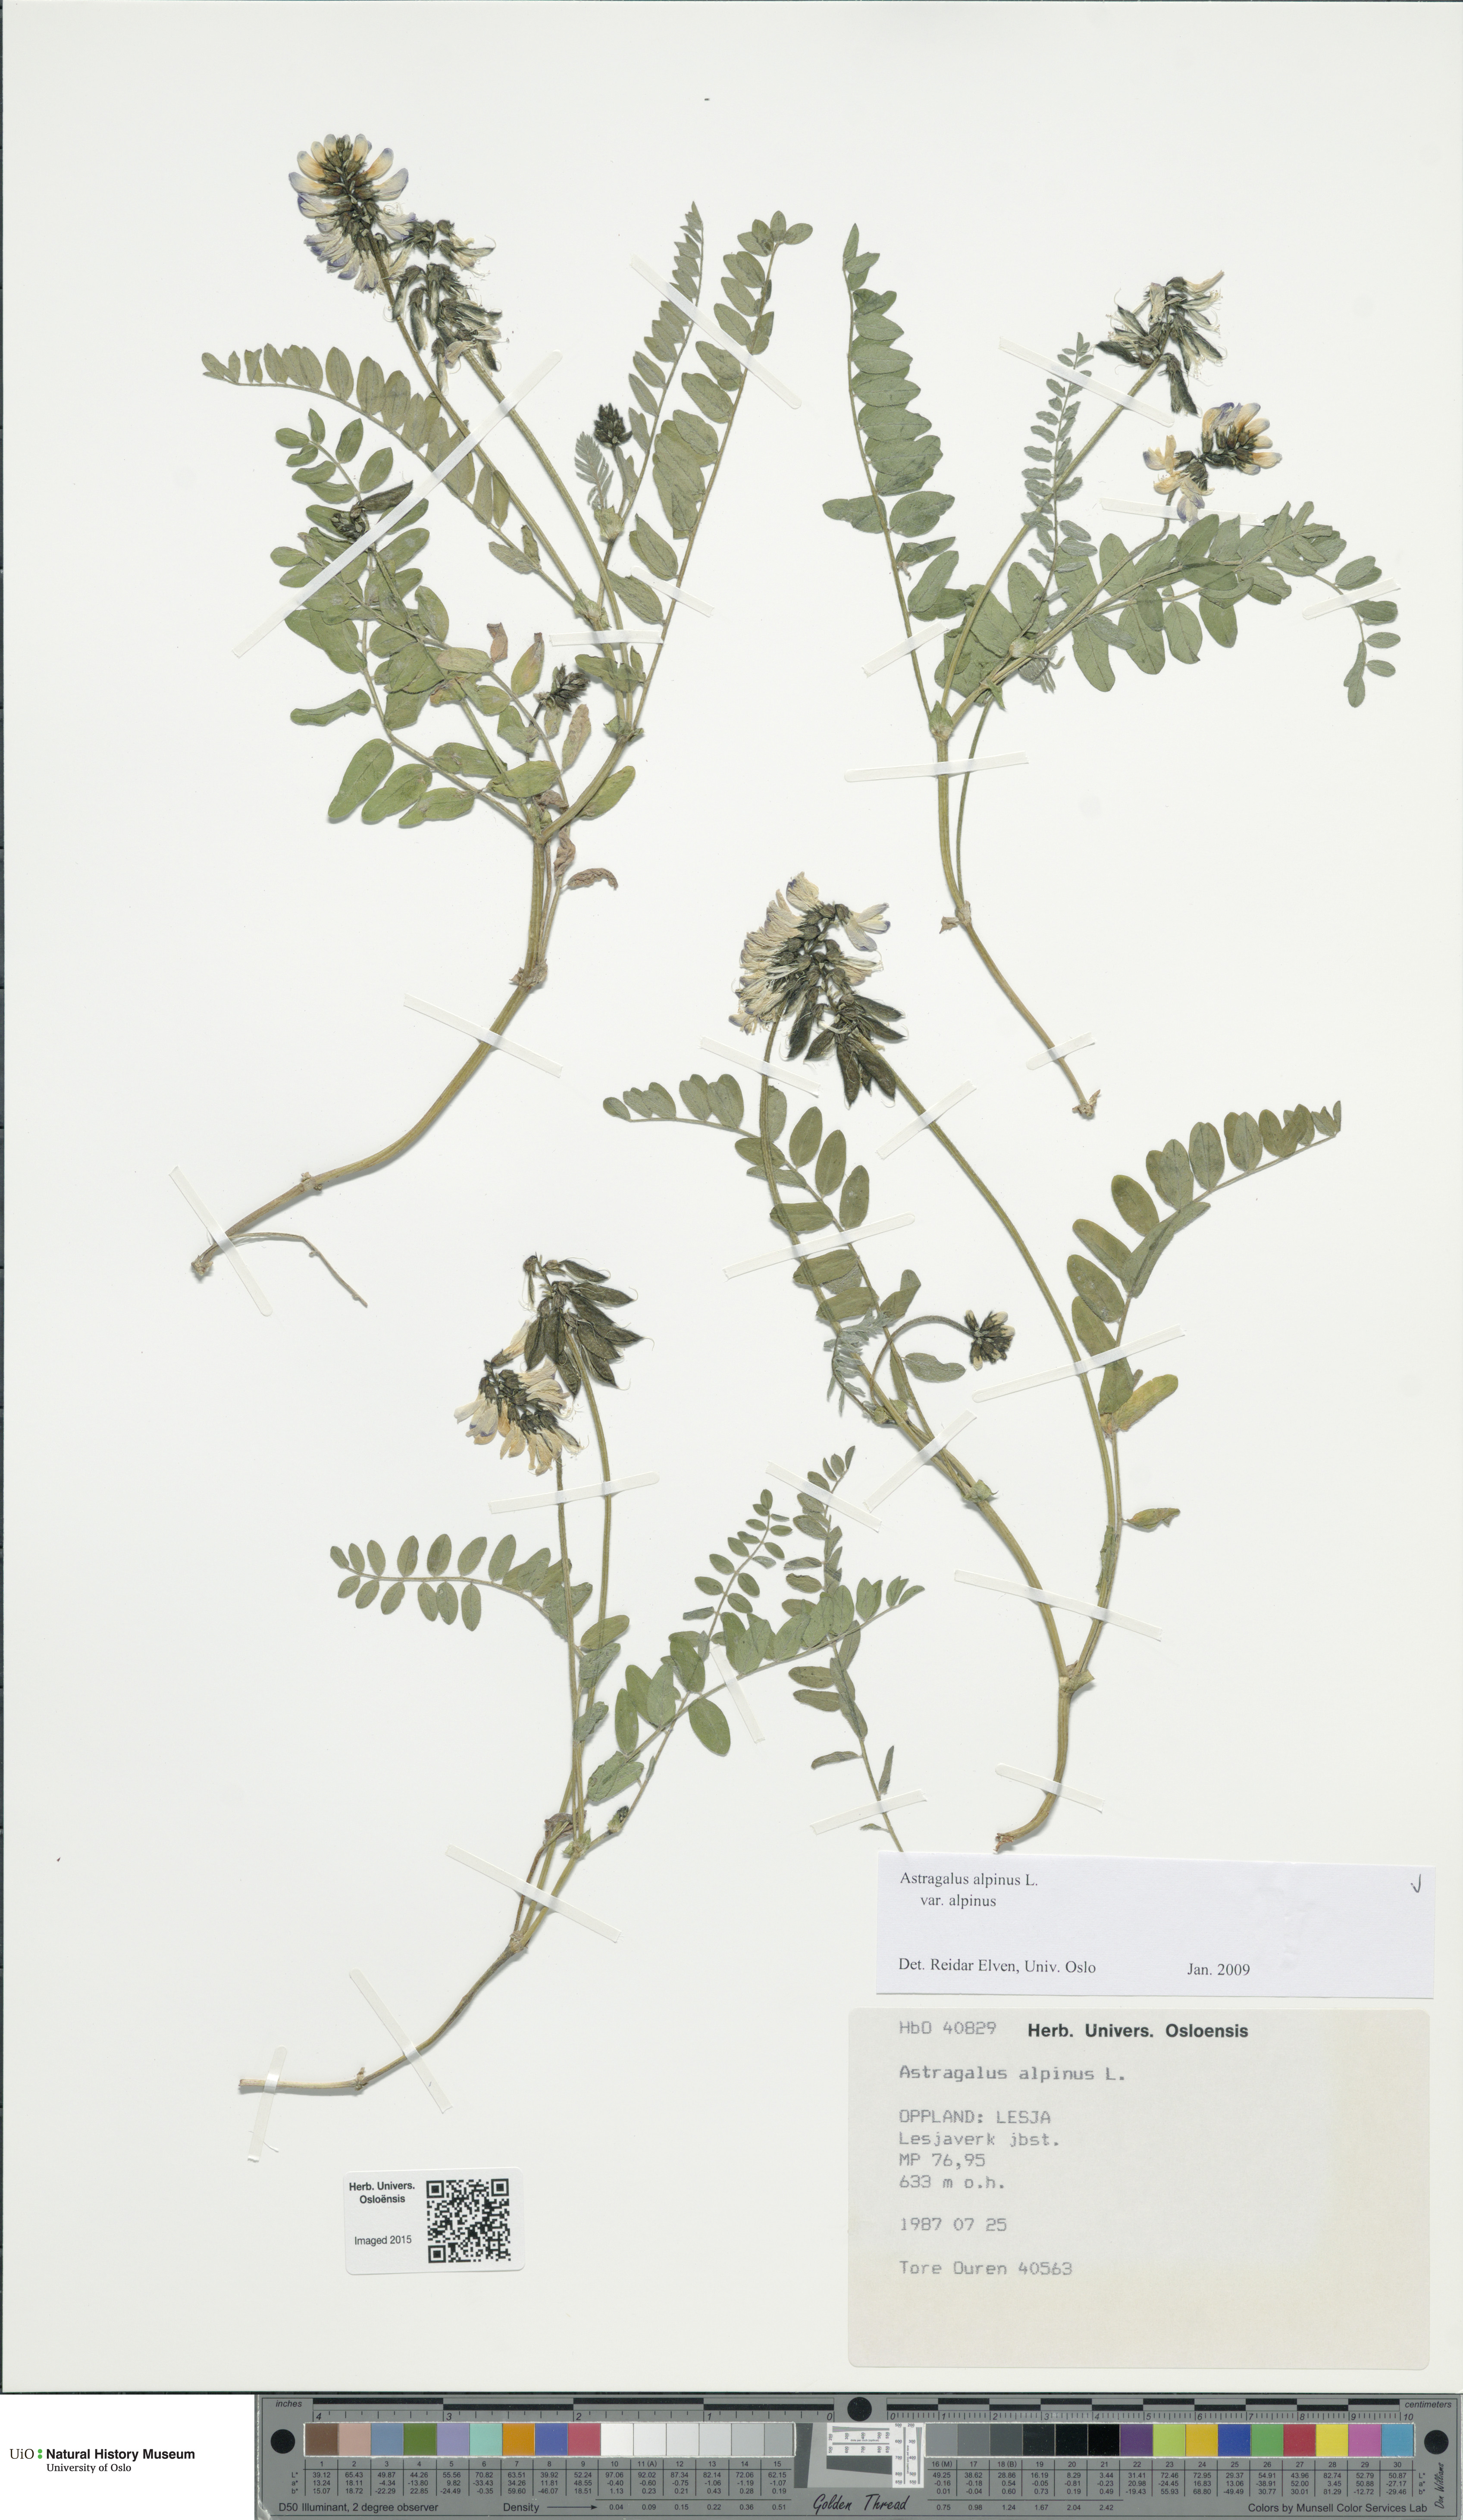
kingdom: Plantae
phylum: Tracheophyta
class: Magnoliopsida
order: Fabales
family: Fabaceae
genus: Astragalus
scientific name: Astragalus alpinus
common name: Alpine milk-vetch
